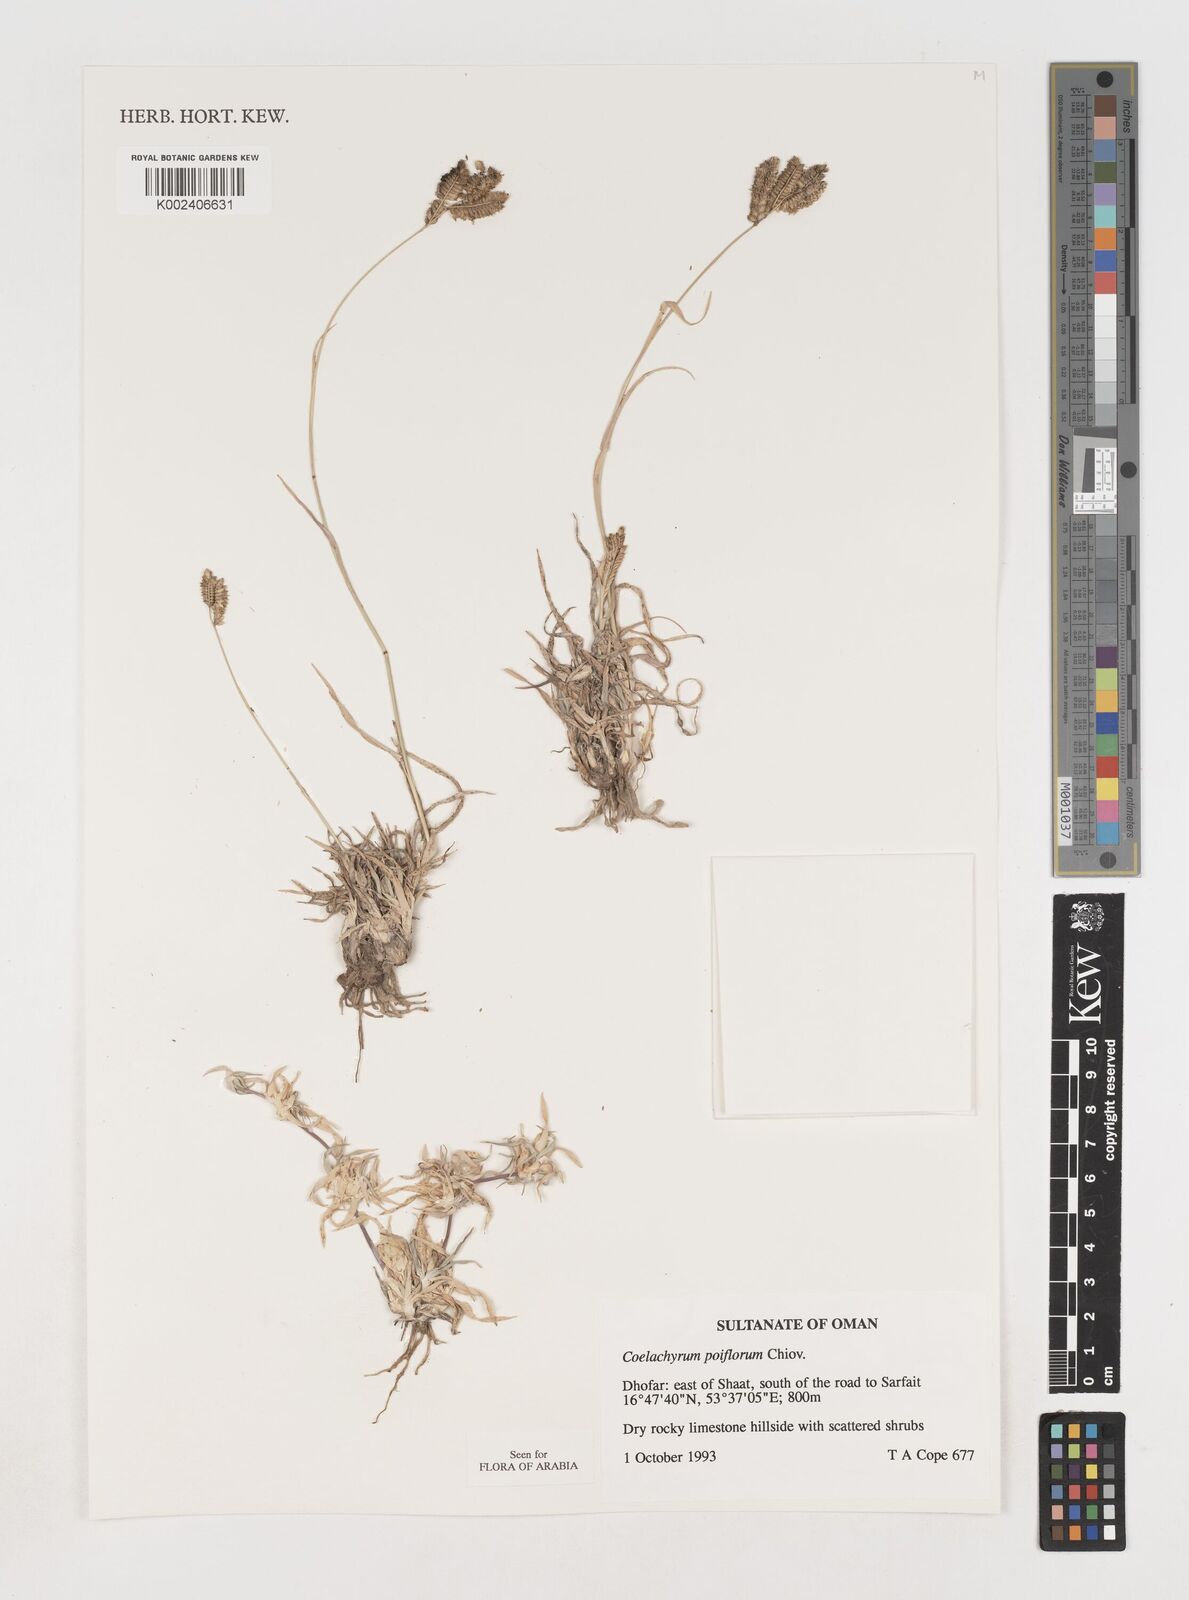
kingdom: Plantae
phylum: Tracheophyta
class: Liliopsida
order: Poales
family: Poaceae
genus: Coelachyrum
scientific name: Coelachyrum poiflorum
